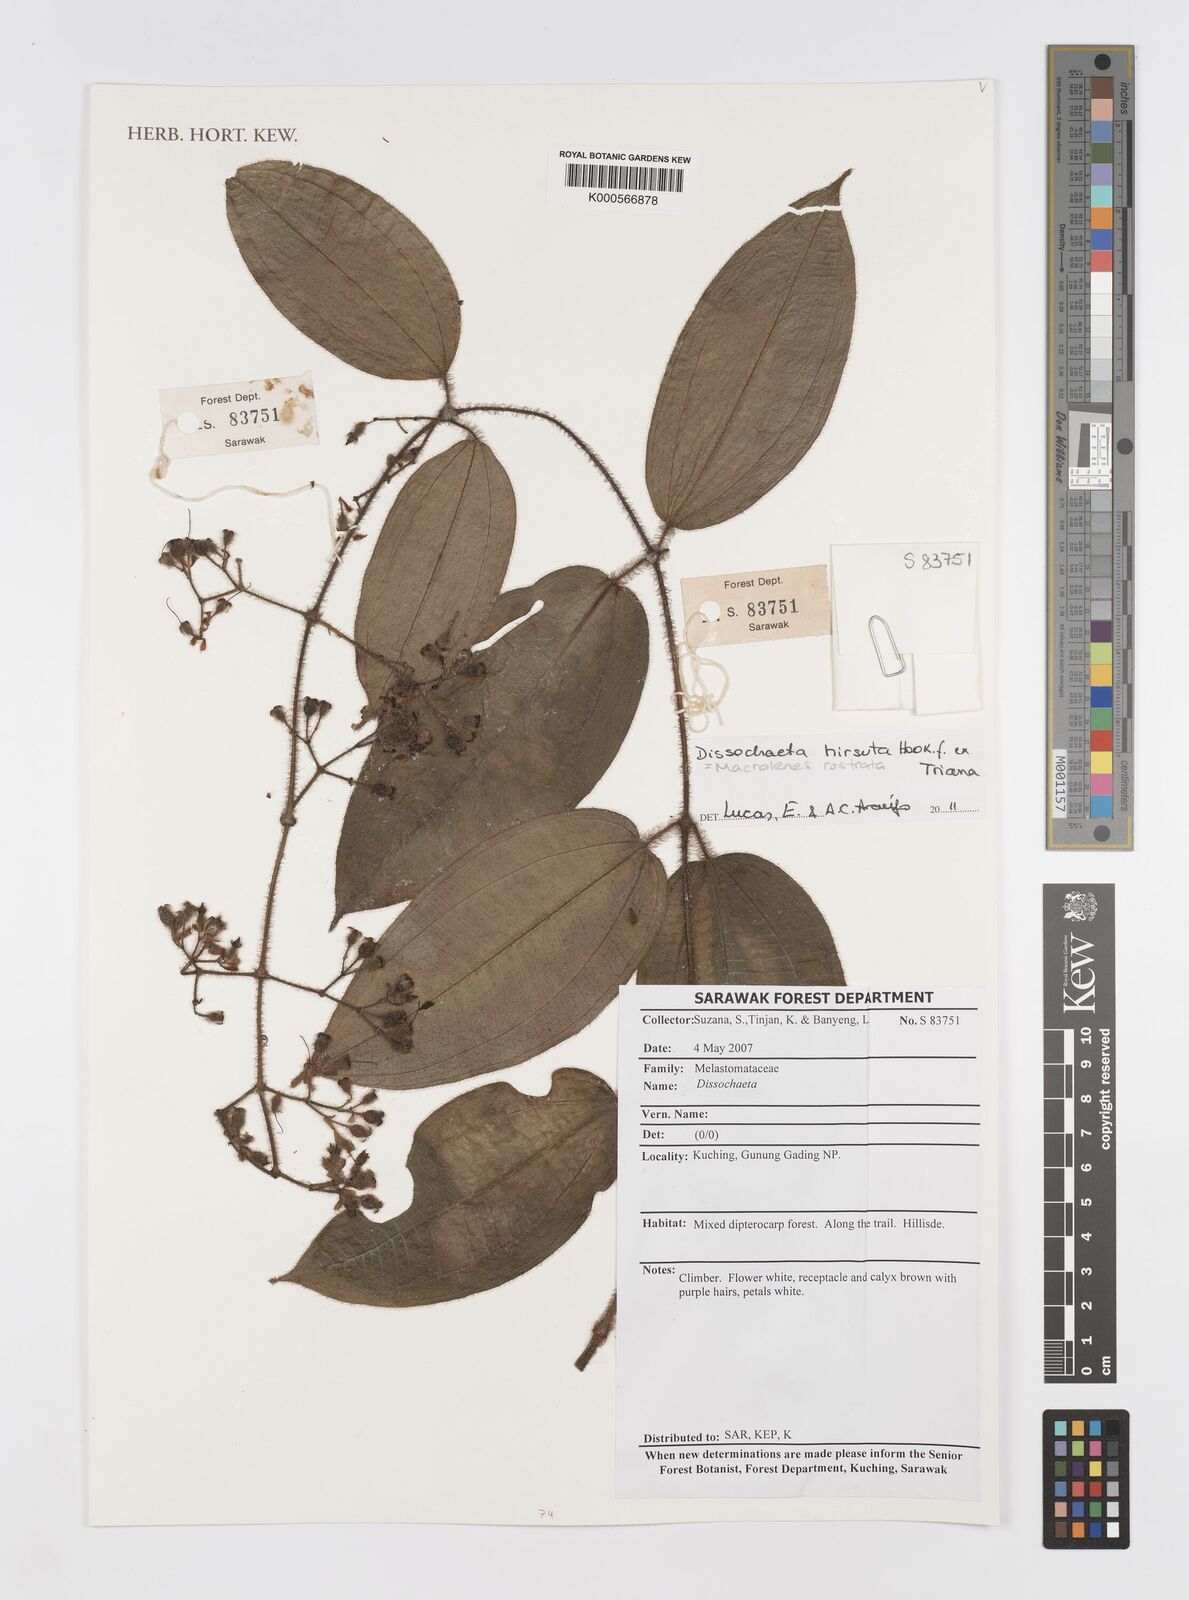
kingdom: Plantae
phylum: Tracheophyta
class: Magnoliopsida
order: Myrtales
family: Melastomataceae
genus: Macrolenes
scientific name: Macrolenes rostrata
